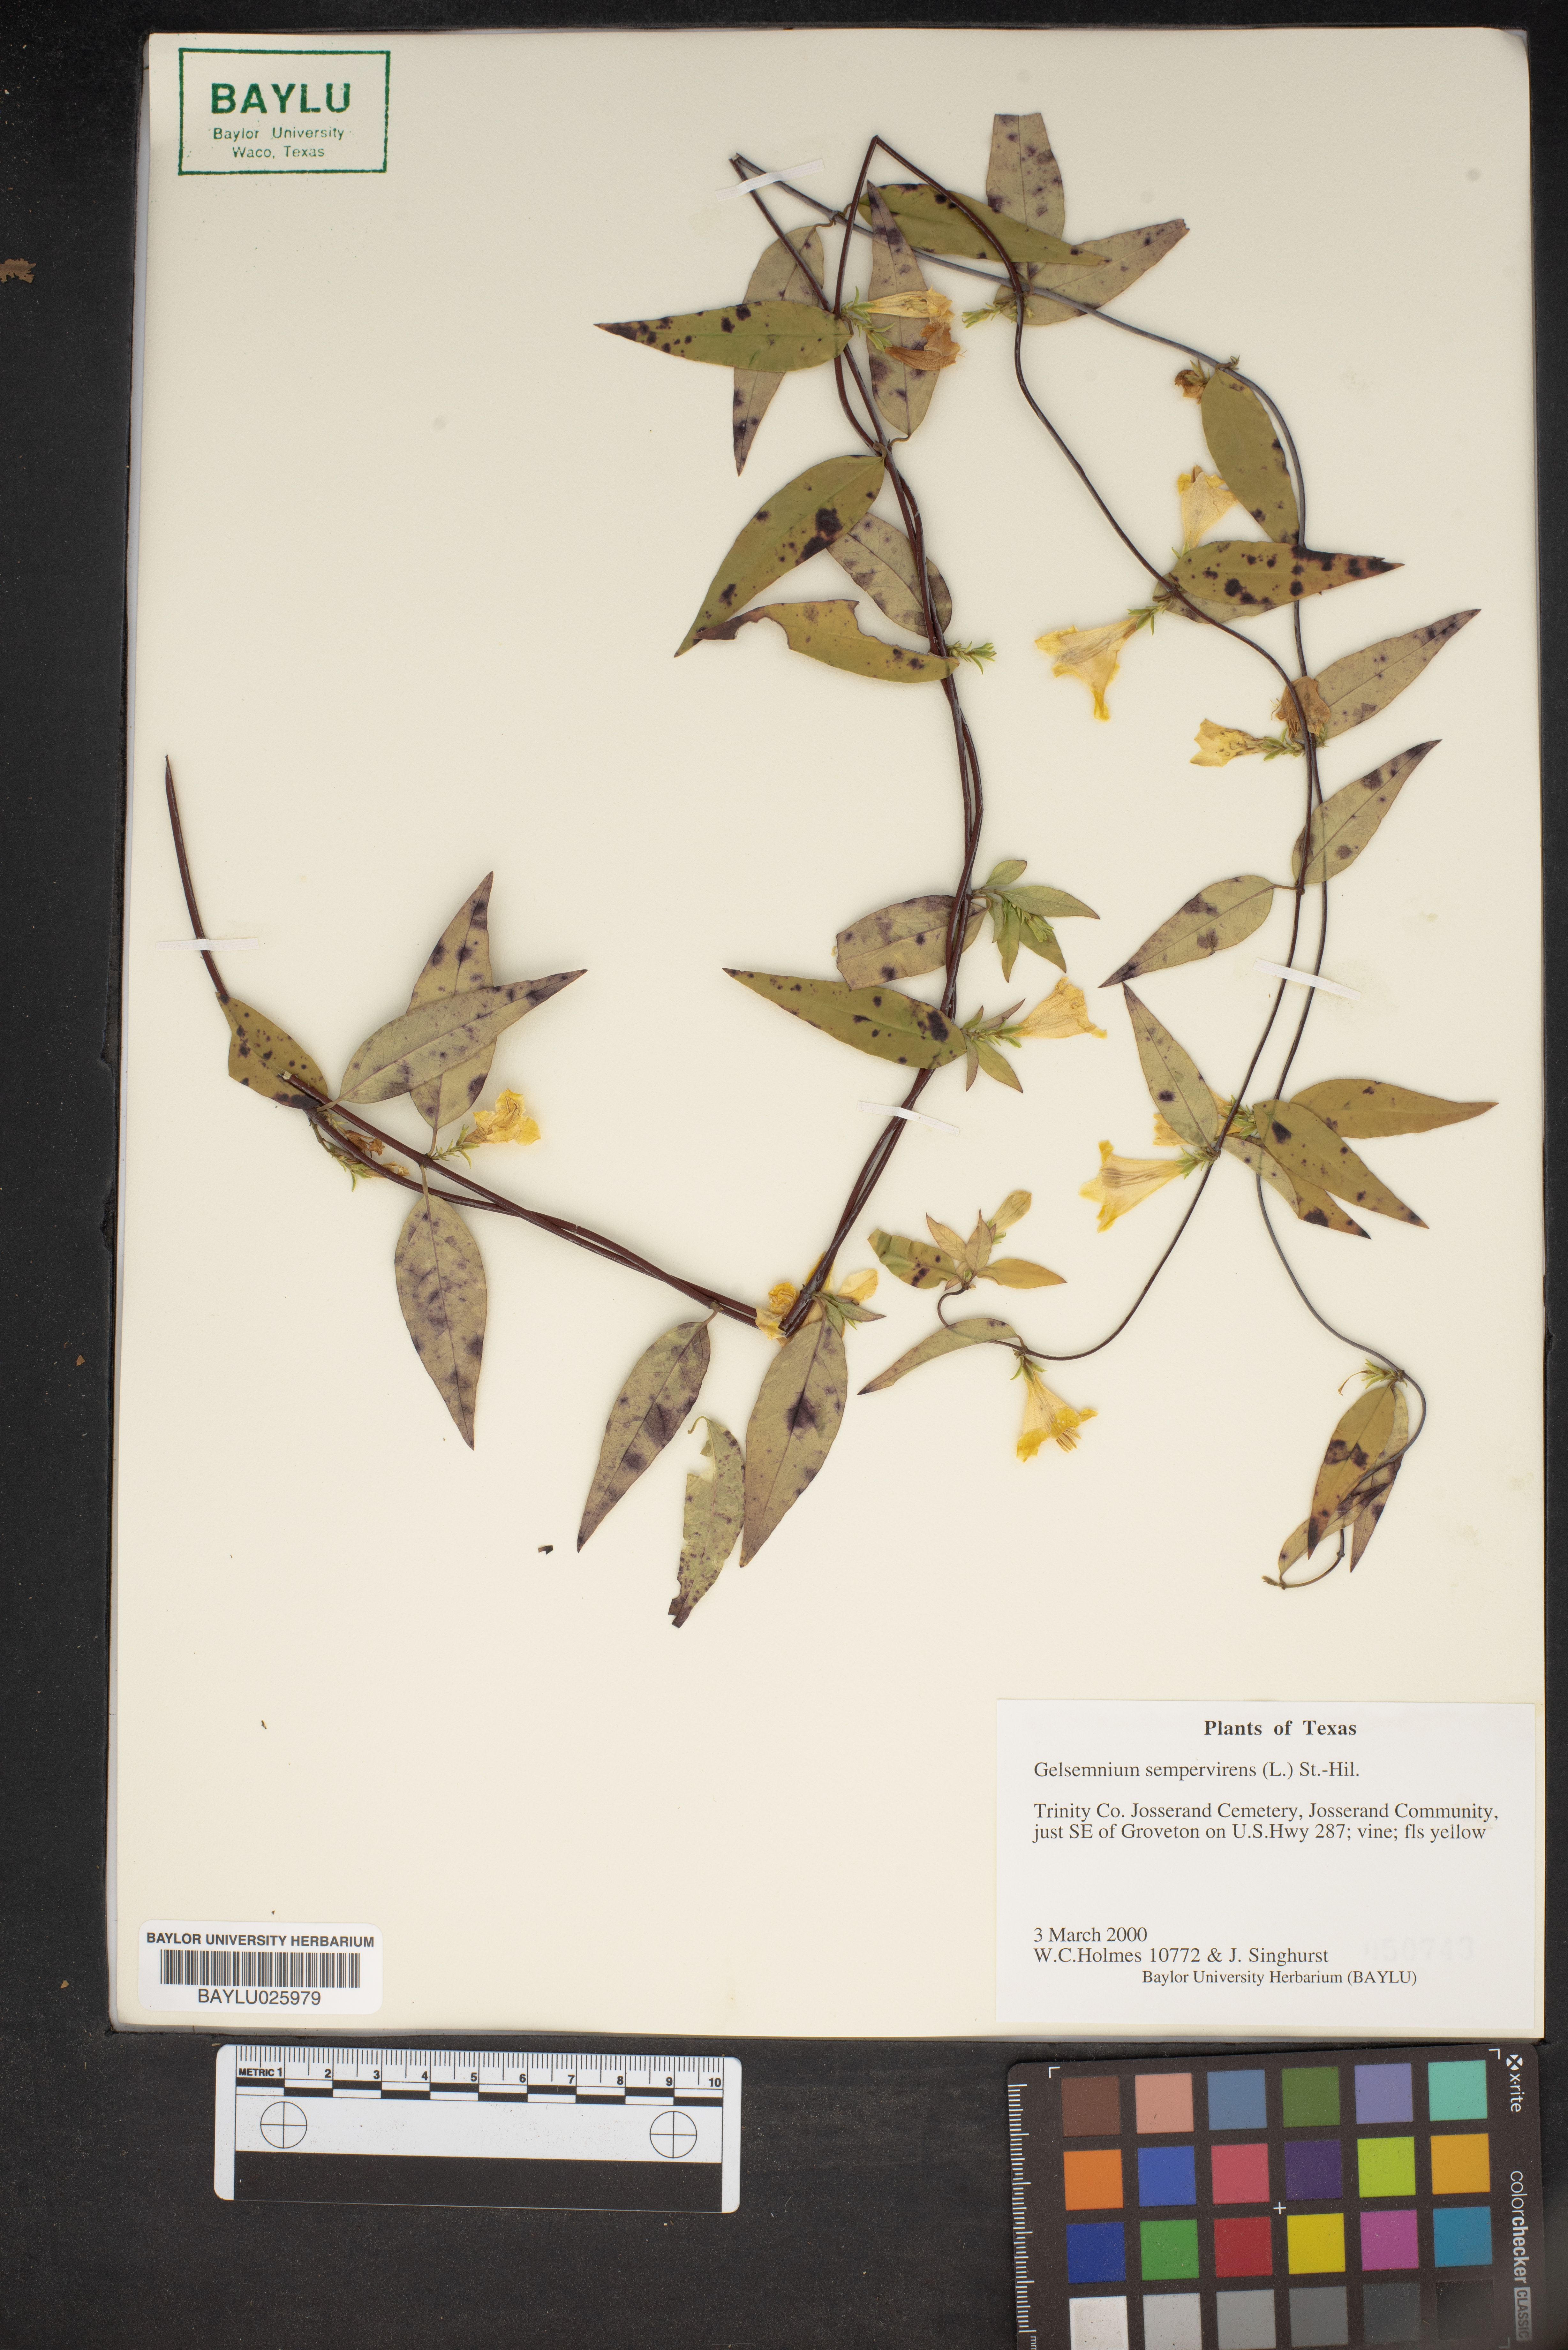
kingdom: Plantae
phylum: Tracheophyta
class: Magnoliopsida
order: Gentianales
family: Gelsemiaceae
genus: Gelsemium
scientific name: Gelsemium sempervirens
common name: Carolina-jasmine
